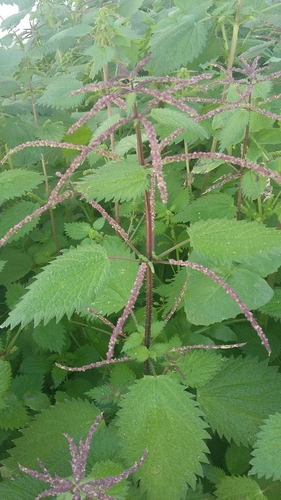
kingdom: Plantae
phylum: Tracheophyta
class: Magnoliopsida
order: Rosales
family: Urticaceae
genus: Urtica
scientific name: Urtica membranacea
